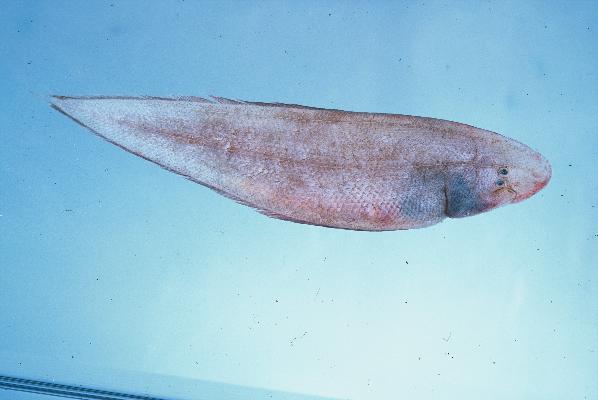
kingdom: Animalia
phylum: Chordata
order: Pleuronectiformes
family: Cynoglossidae
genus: Cynoglossus
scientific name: Cynoglossus acaudatus
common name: Natal tounge-fish
